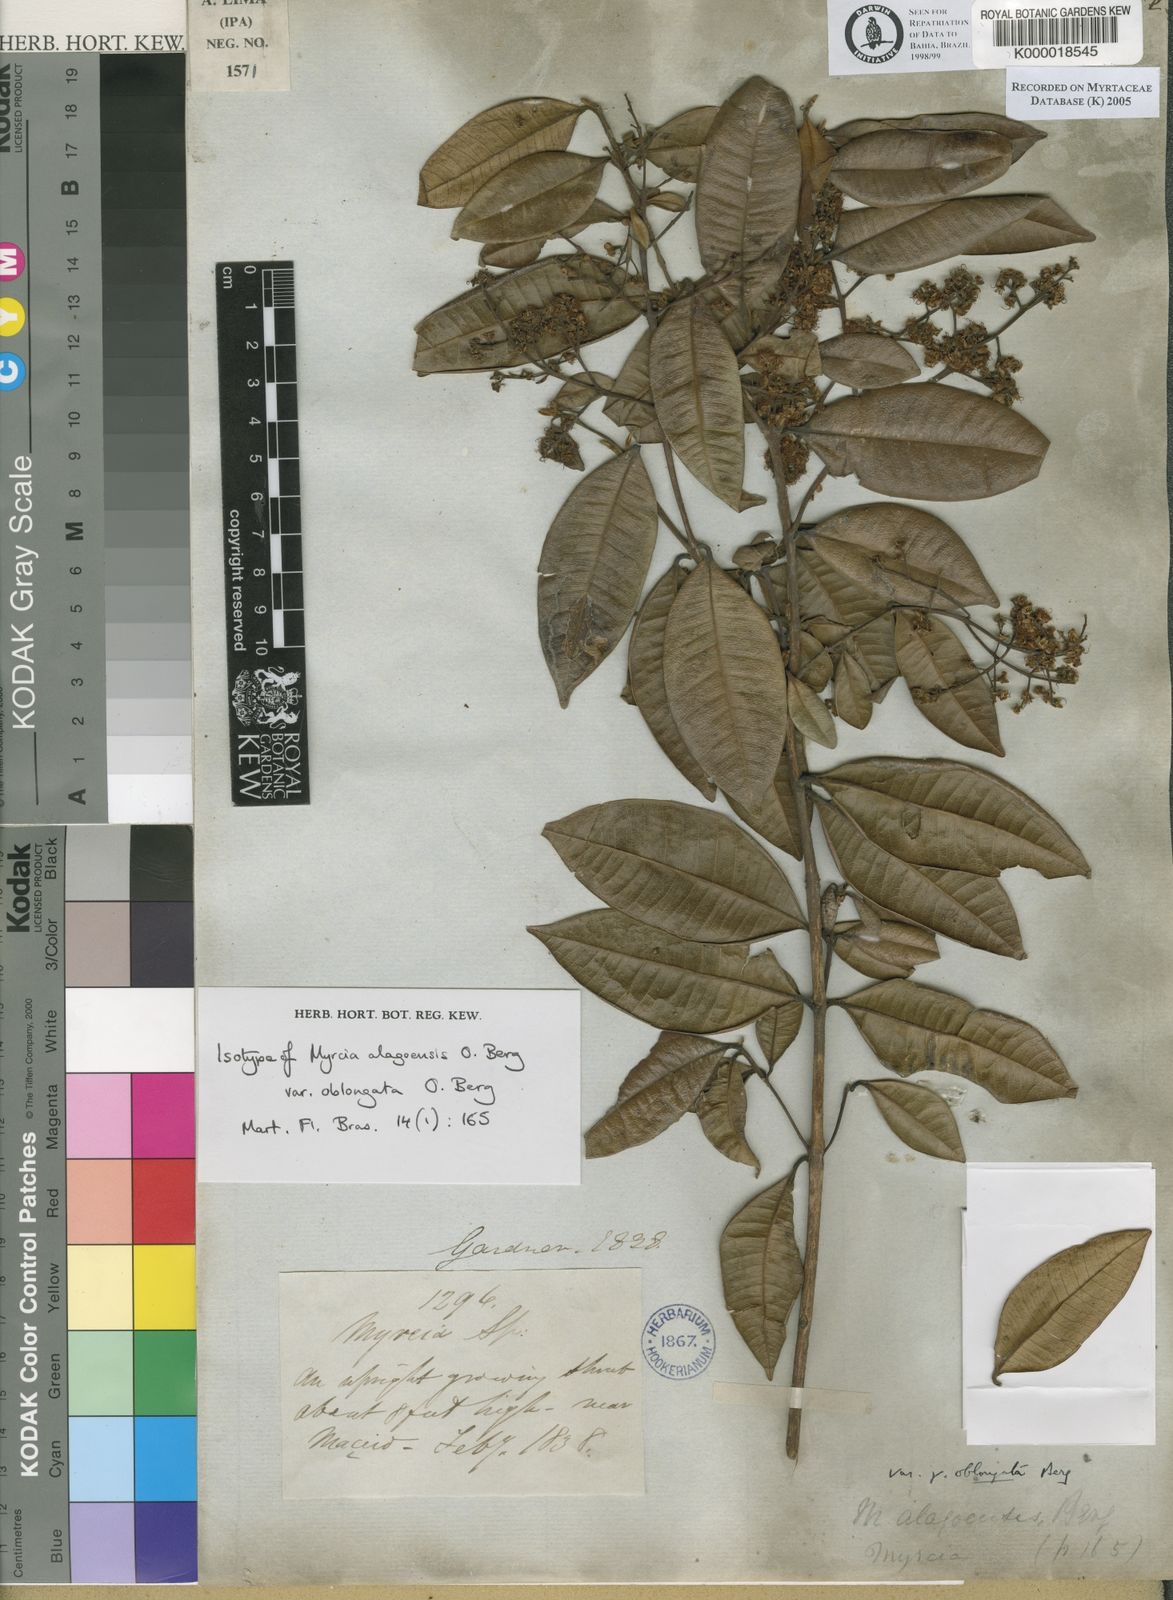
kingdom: Plantae
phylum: Tracheophyta
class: Magnoliopsida
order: Myrtales
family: Myrtaceae
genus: Myrcia
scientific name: Myrcia splendens
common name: Surinam cherry
